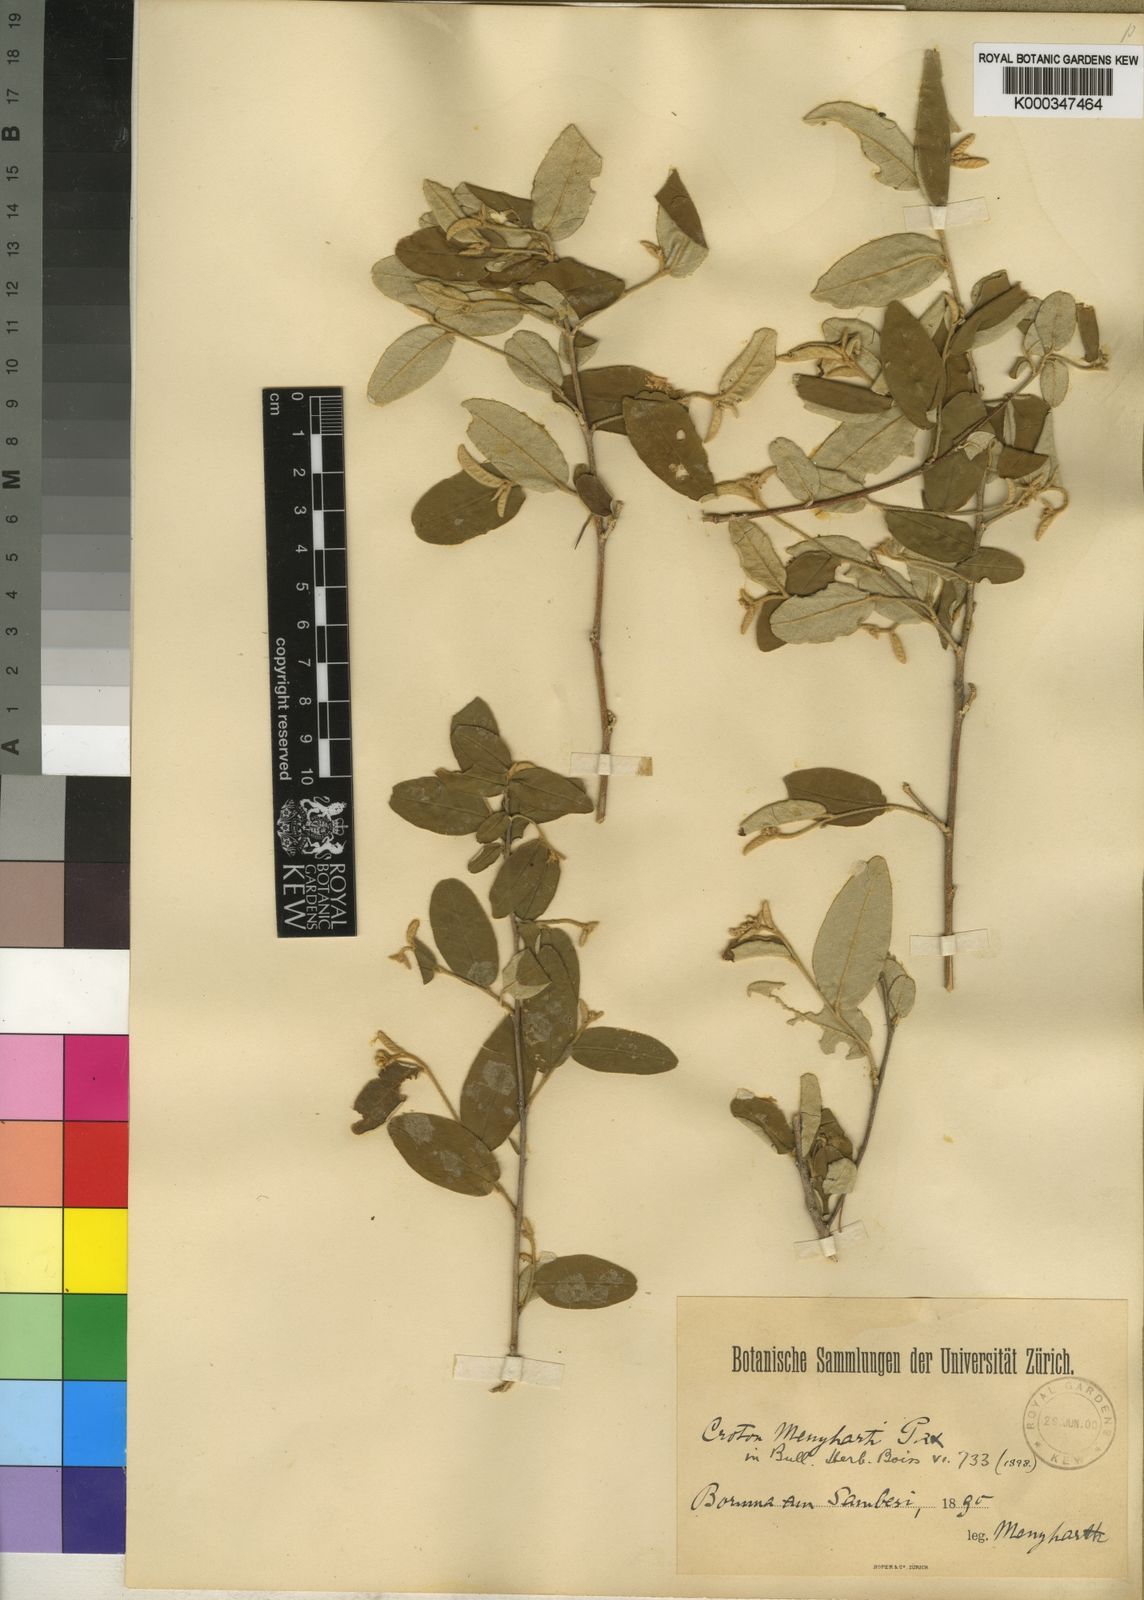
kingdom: Plantae
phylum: Tracheophyta
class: Magnoliopsida
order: Malpighiales
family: Euphorbiaceae
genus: Croton
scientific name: Croton
